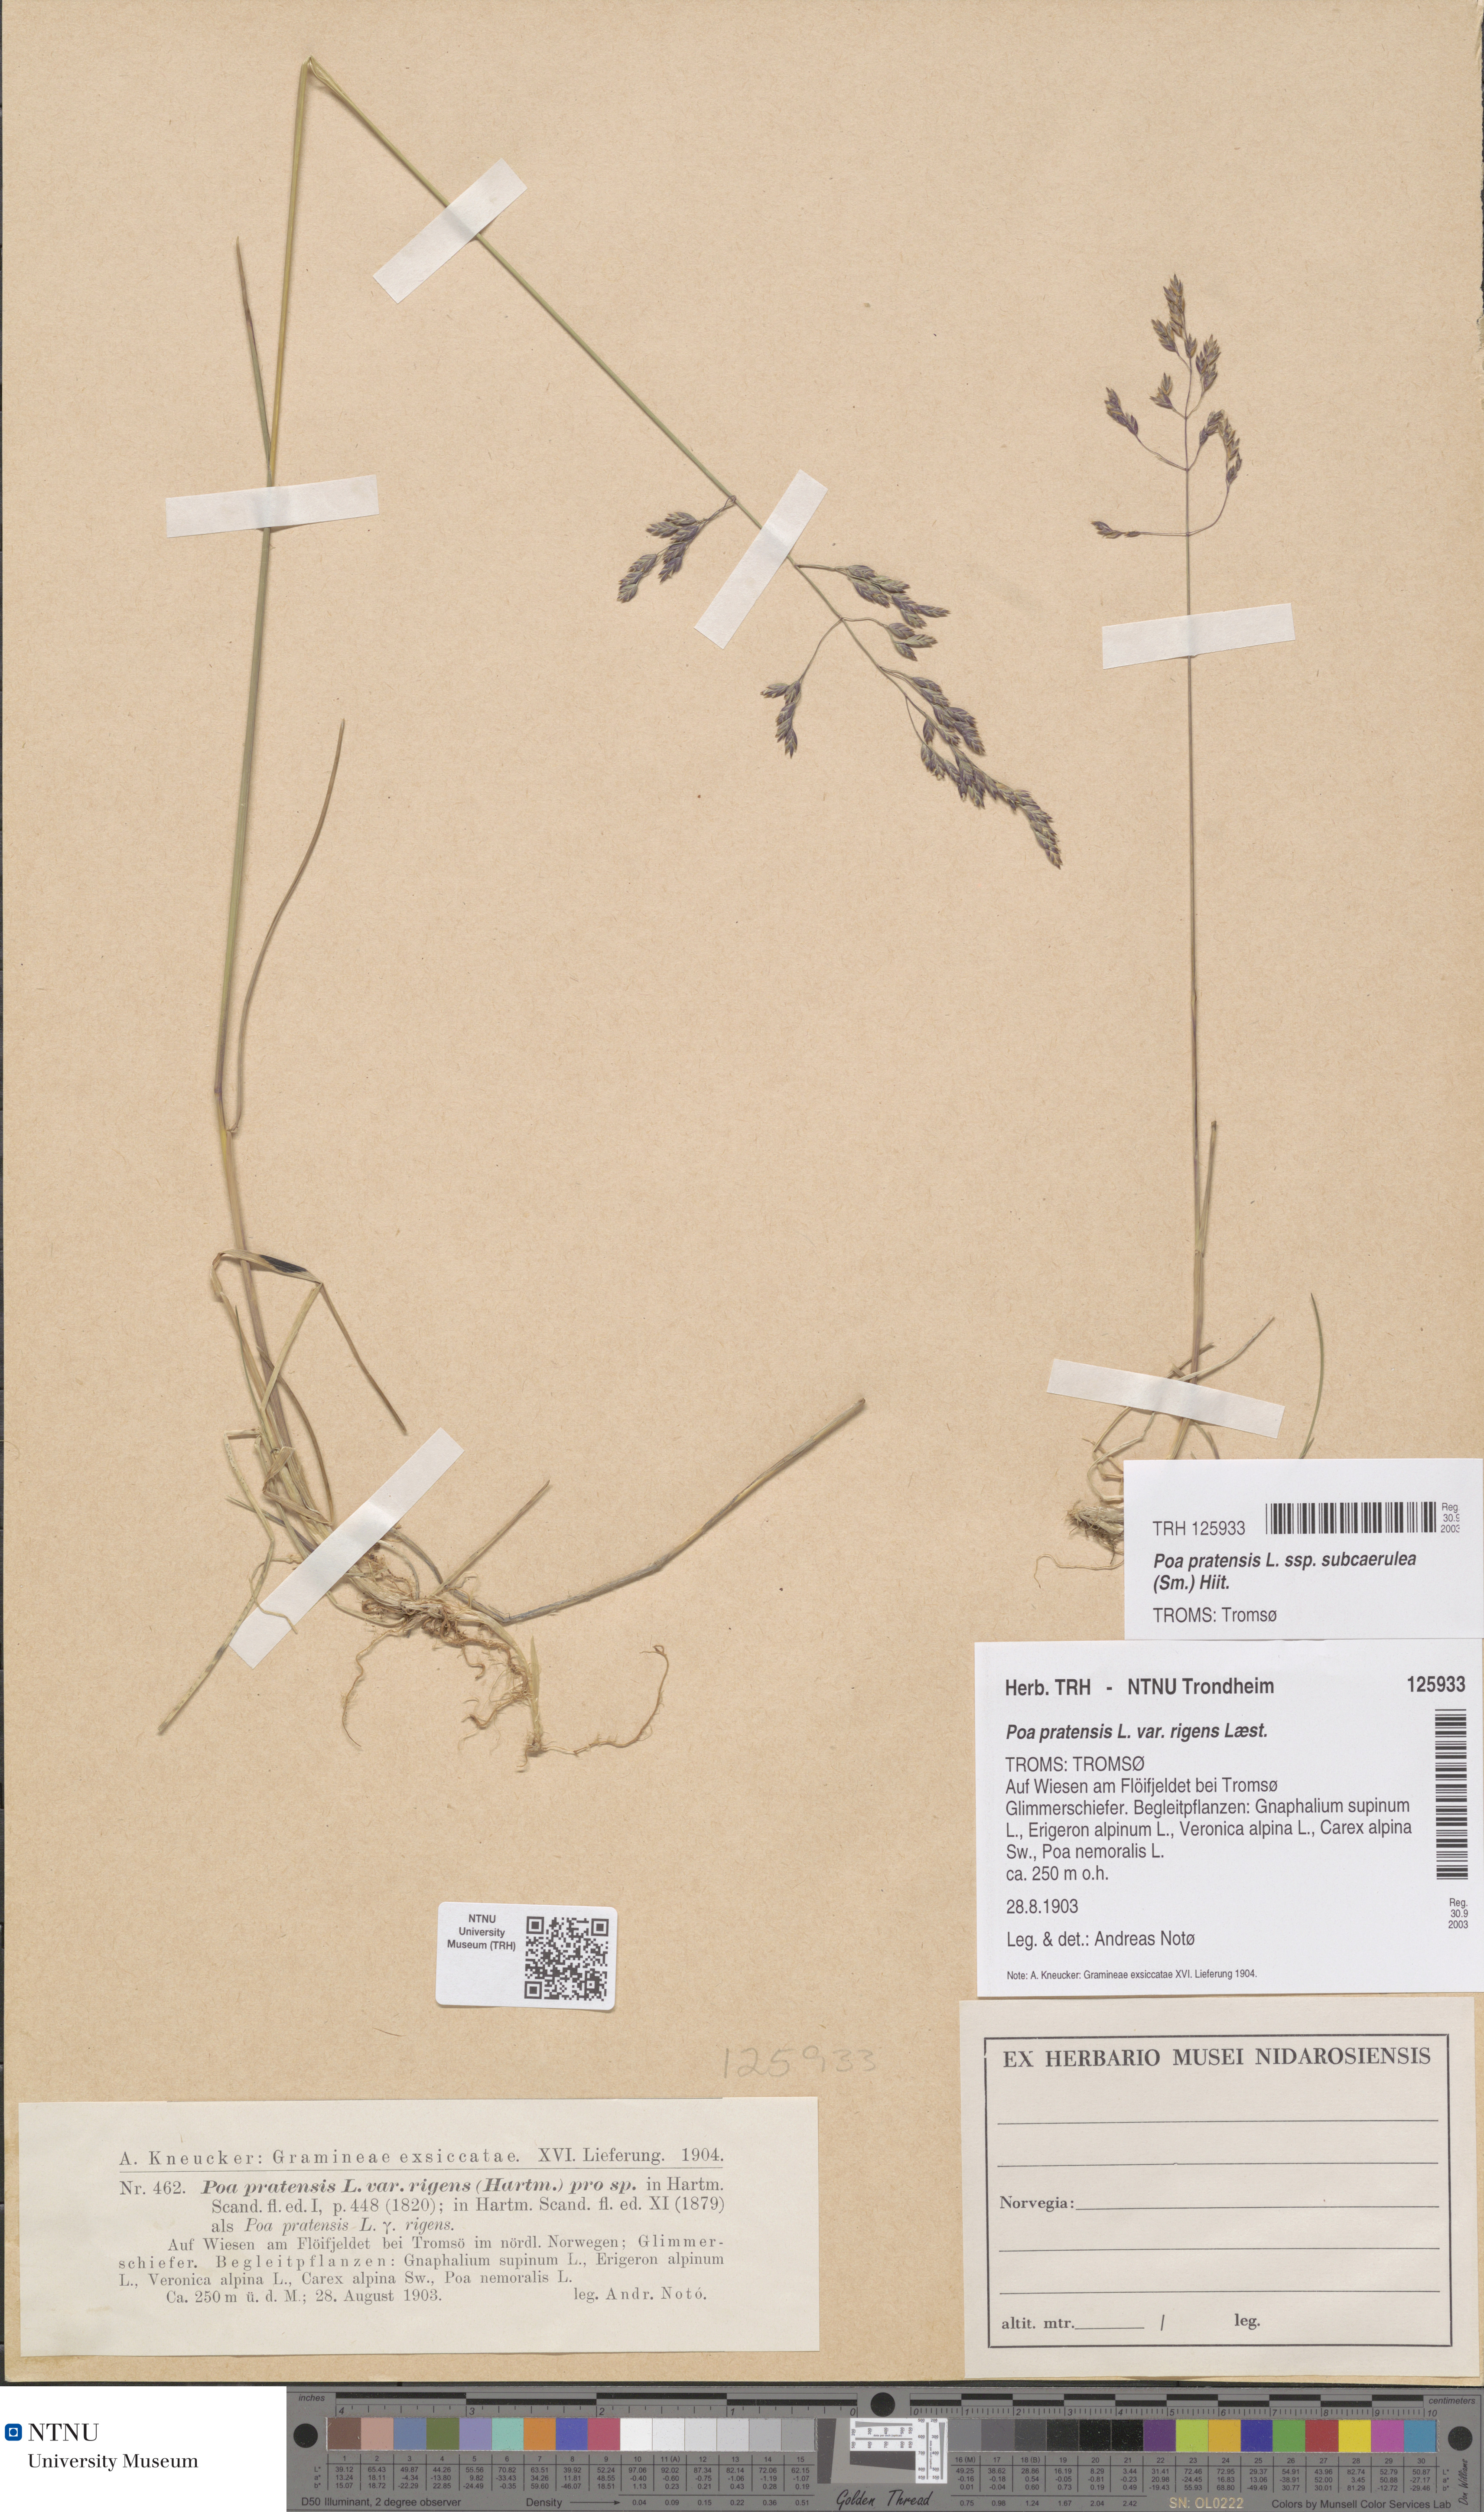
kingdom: Plantae
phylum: Tracheophyta
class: Liliopsida
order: Poales
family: Poaceae
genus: Poa
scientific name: Poa alpigena
